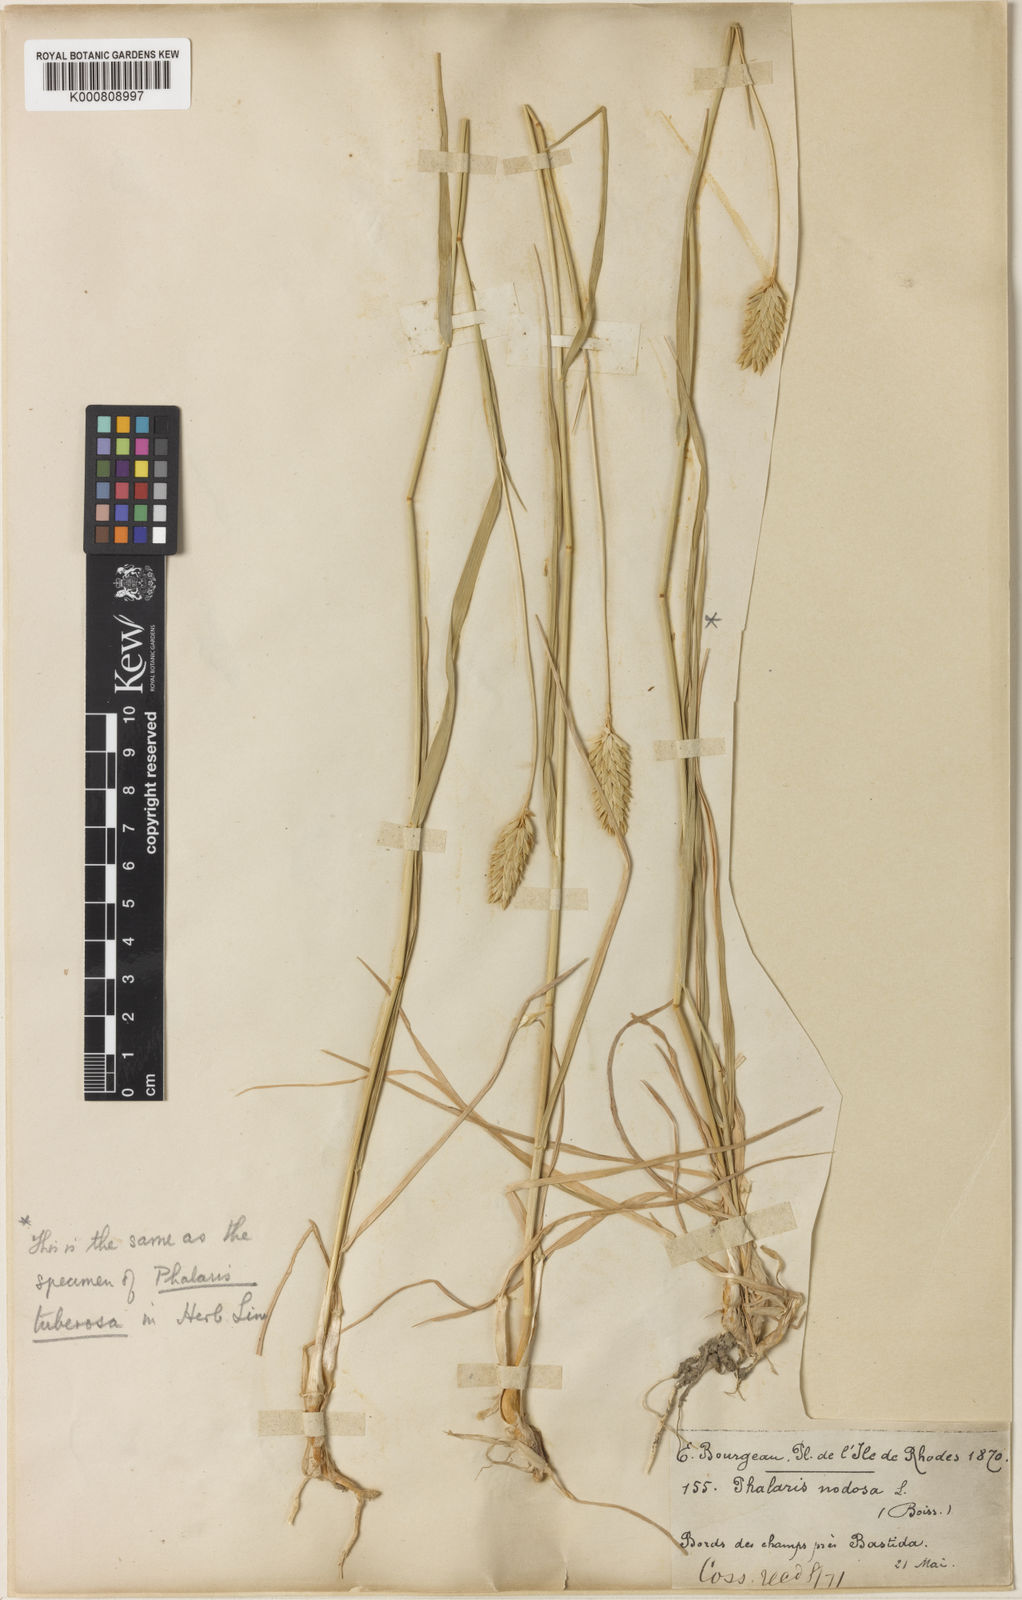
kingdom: Plantae
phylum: Tracheophyta
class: Liliopsida
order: Poales
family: Poaceae
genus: Phalaris
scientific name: Phalaris aquatica
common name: Bulbous canary-grass
